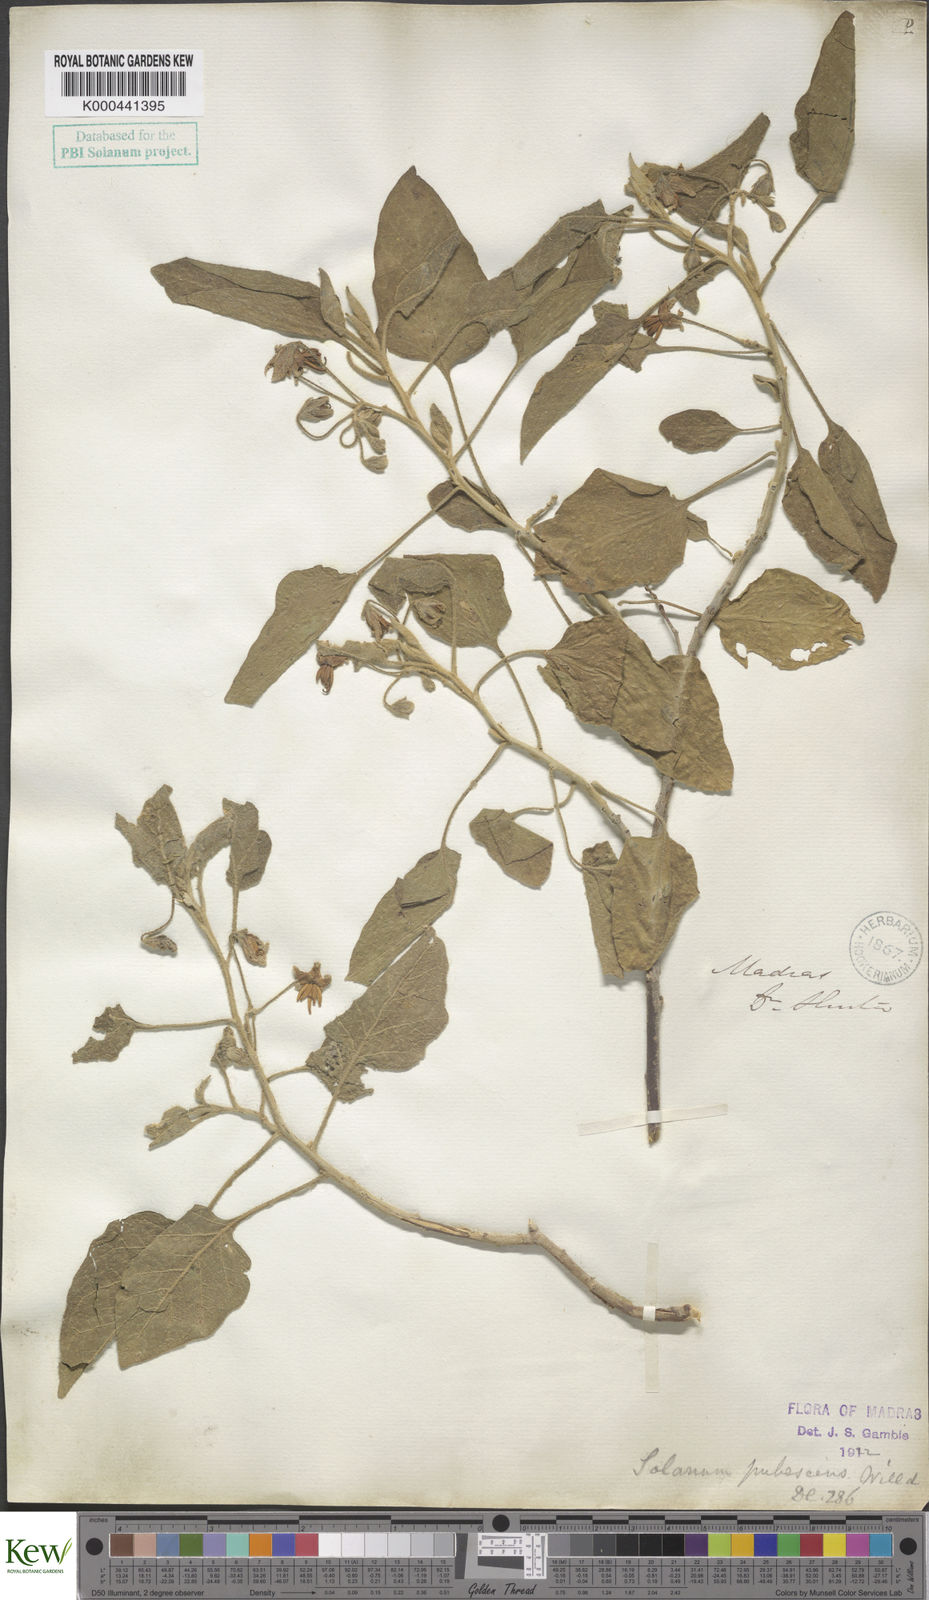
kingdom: Plantae
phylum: Tracheophyta
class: Magnoliopsida
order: Solanales
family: Solanaceae
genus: Solanum
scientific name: Solanum pubescens
